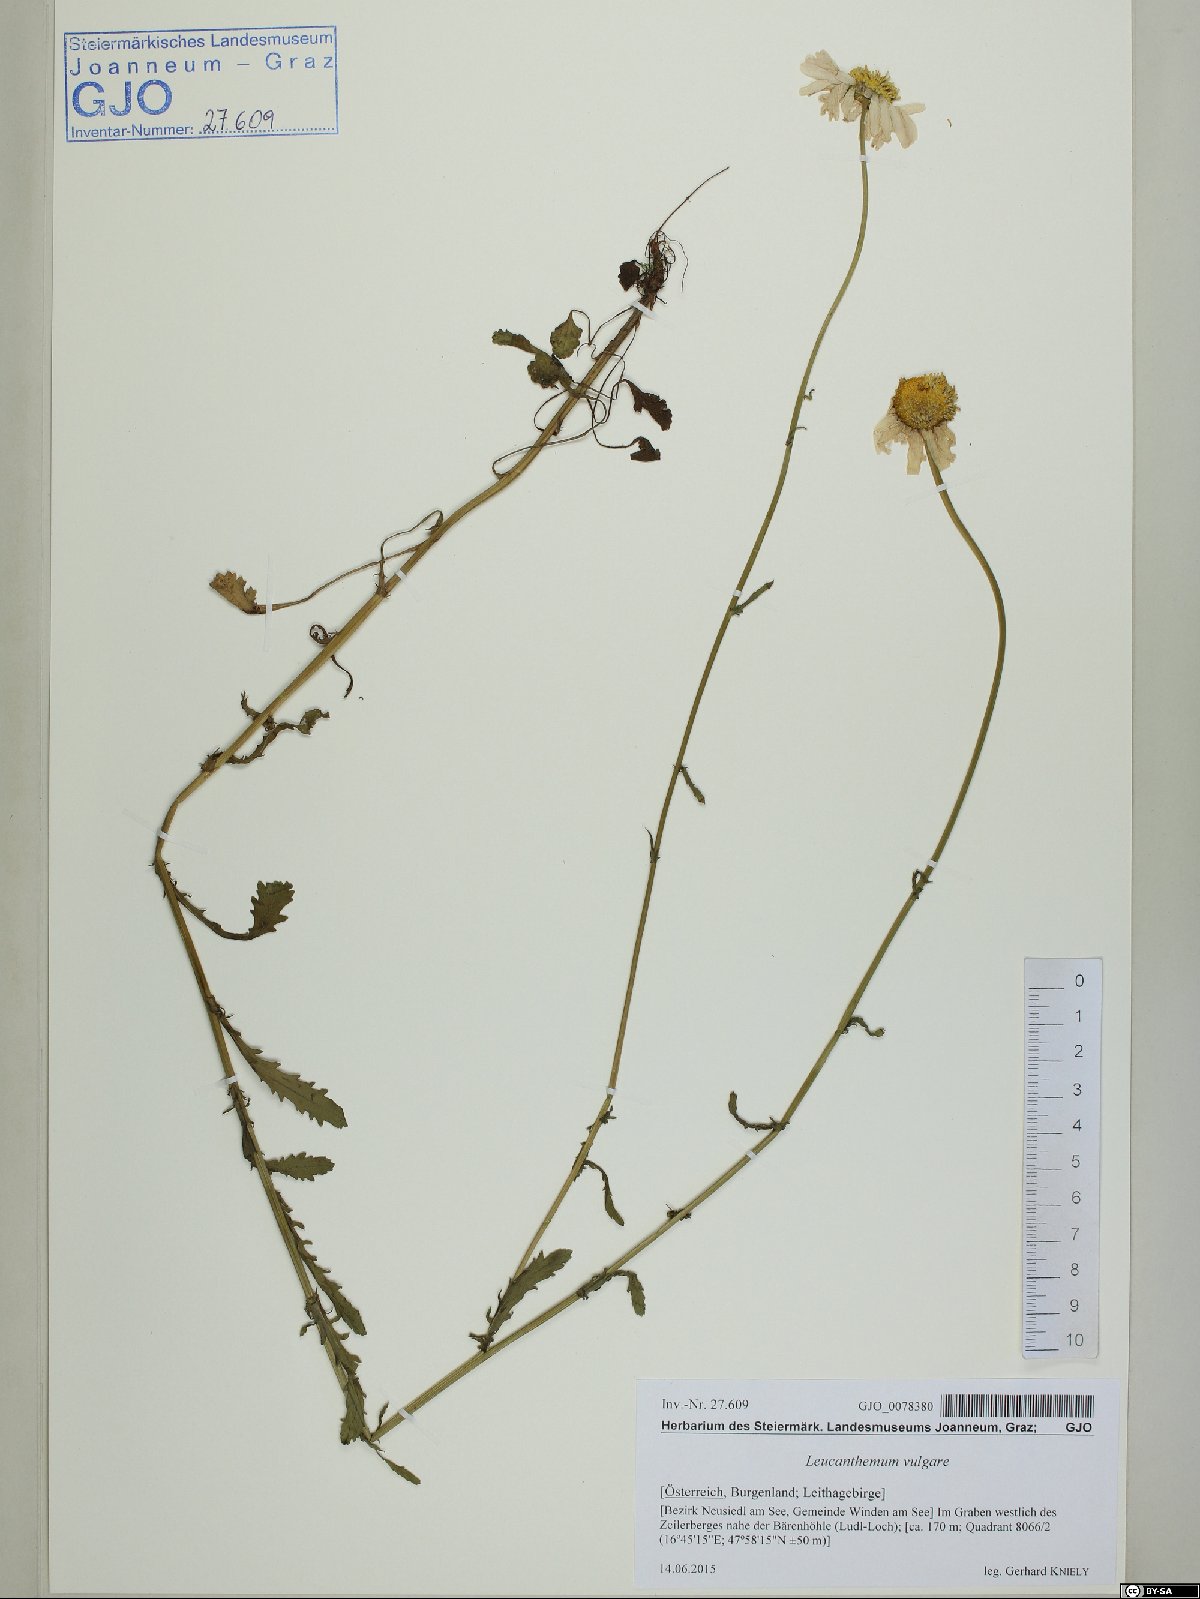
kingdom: Plantae
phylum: Tracheophyta
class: Magnoliopsida
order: Asterales
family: Asteraceae
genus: Leucanthemum
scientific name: Leucanthemum vulgare
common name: Oxeye daisy
